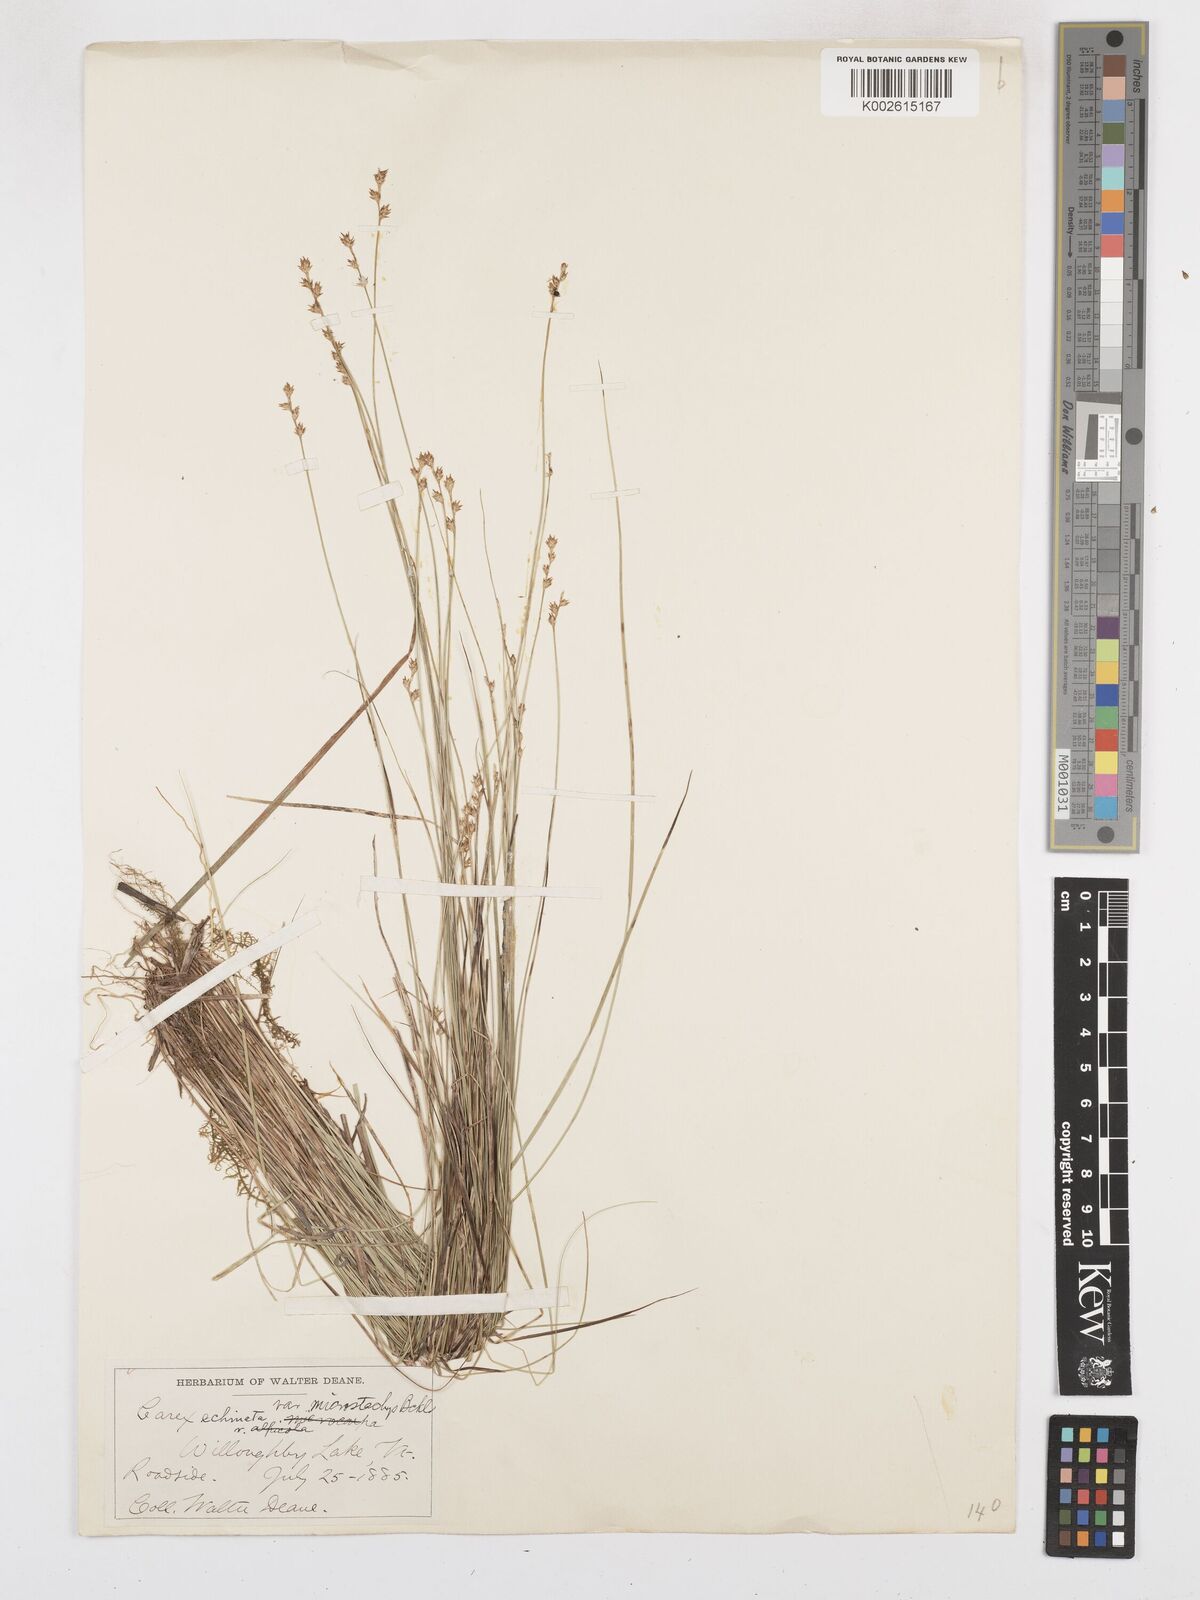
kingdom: Plantae
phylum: Tracheophyta
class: Liliopsida
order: Poales
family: Cyperaceae
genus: Carex
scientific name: Carex echinata
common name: Star sedge
